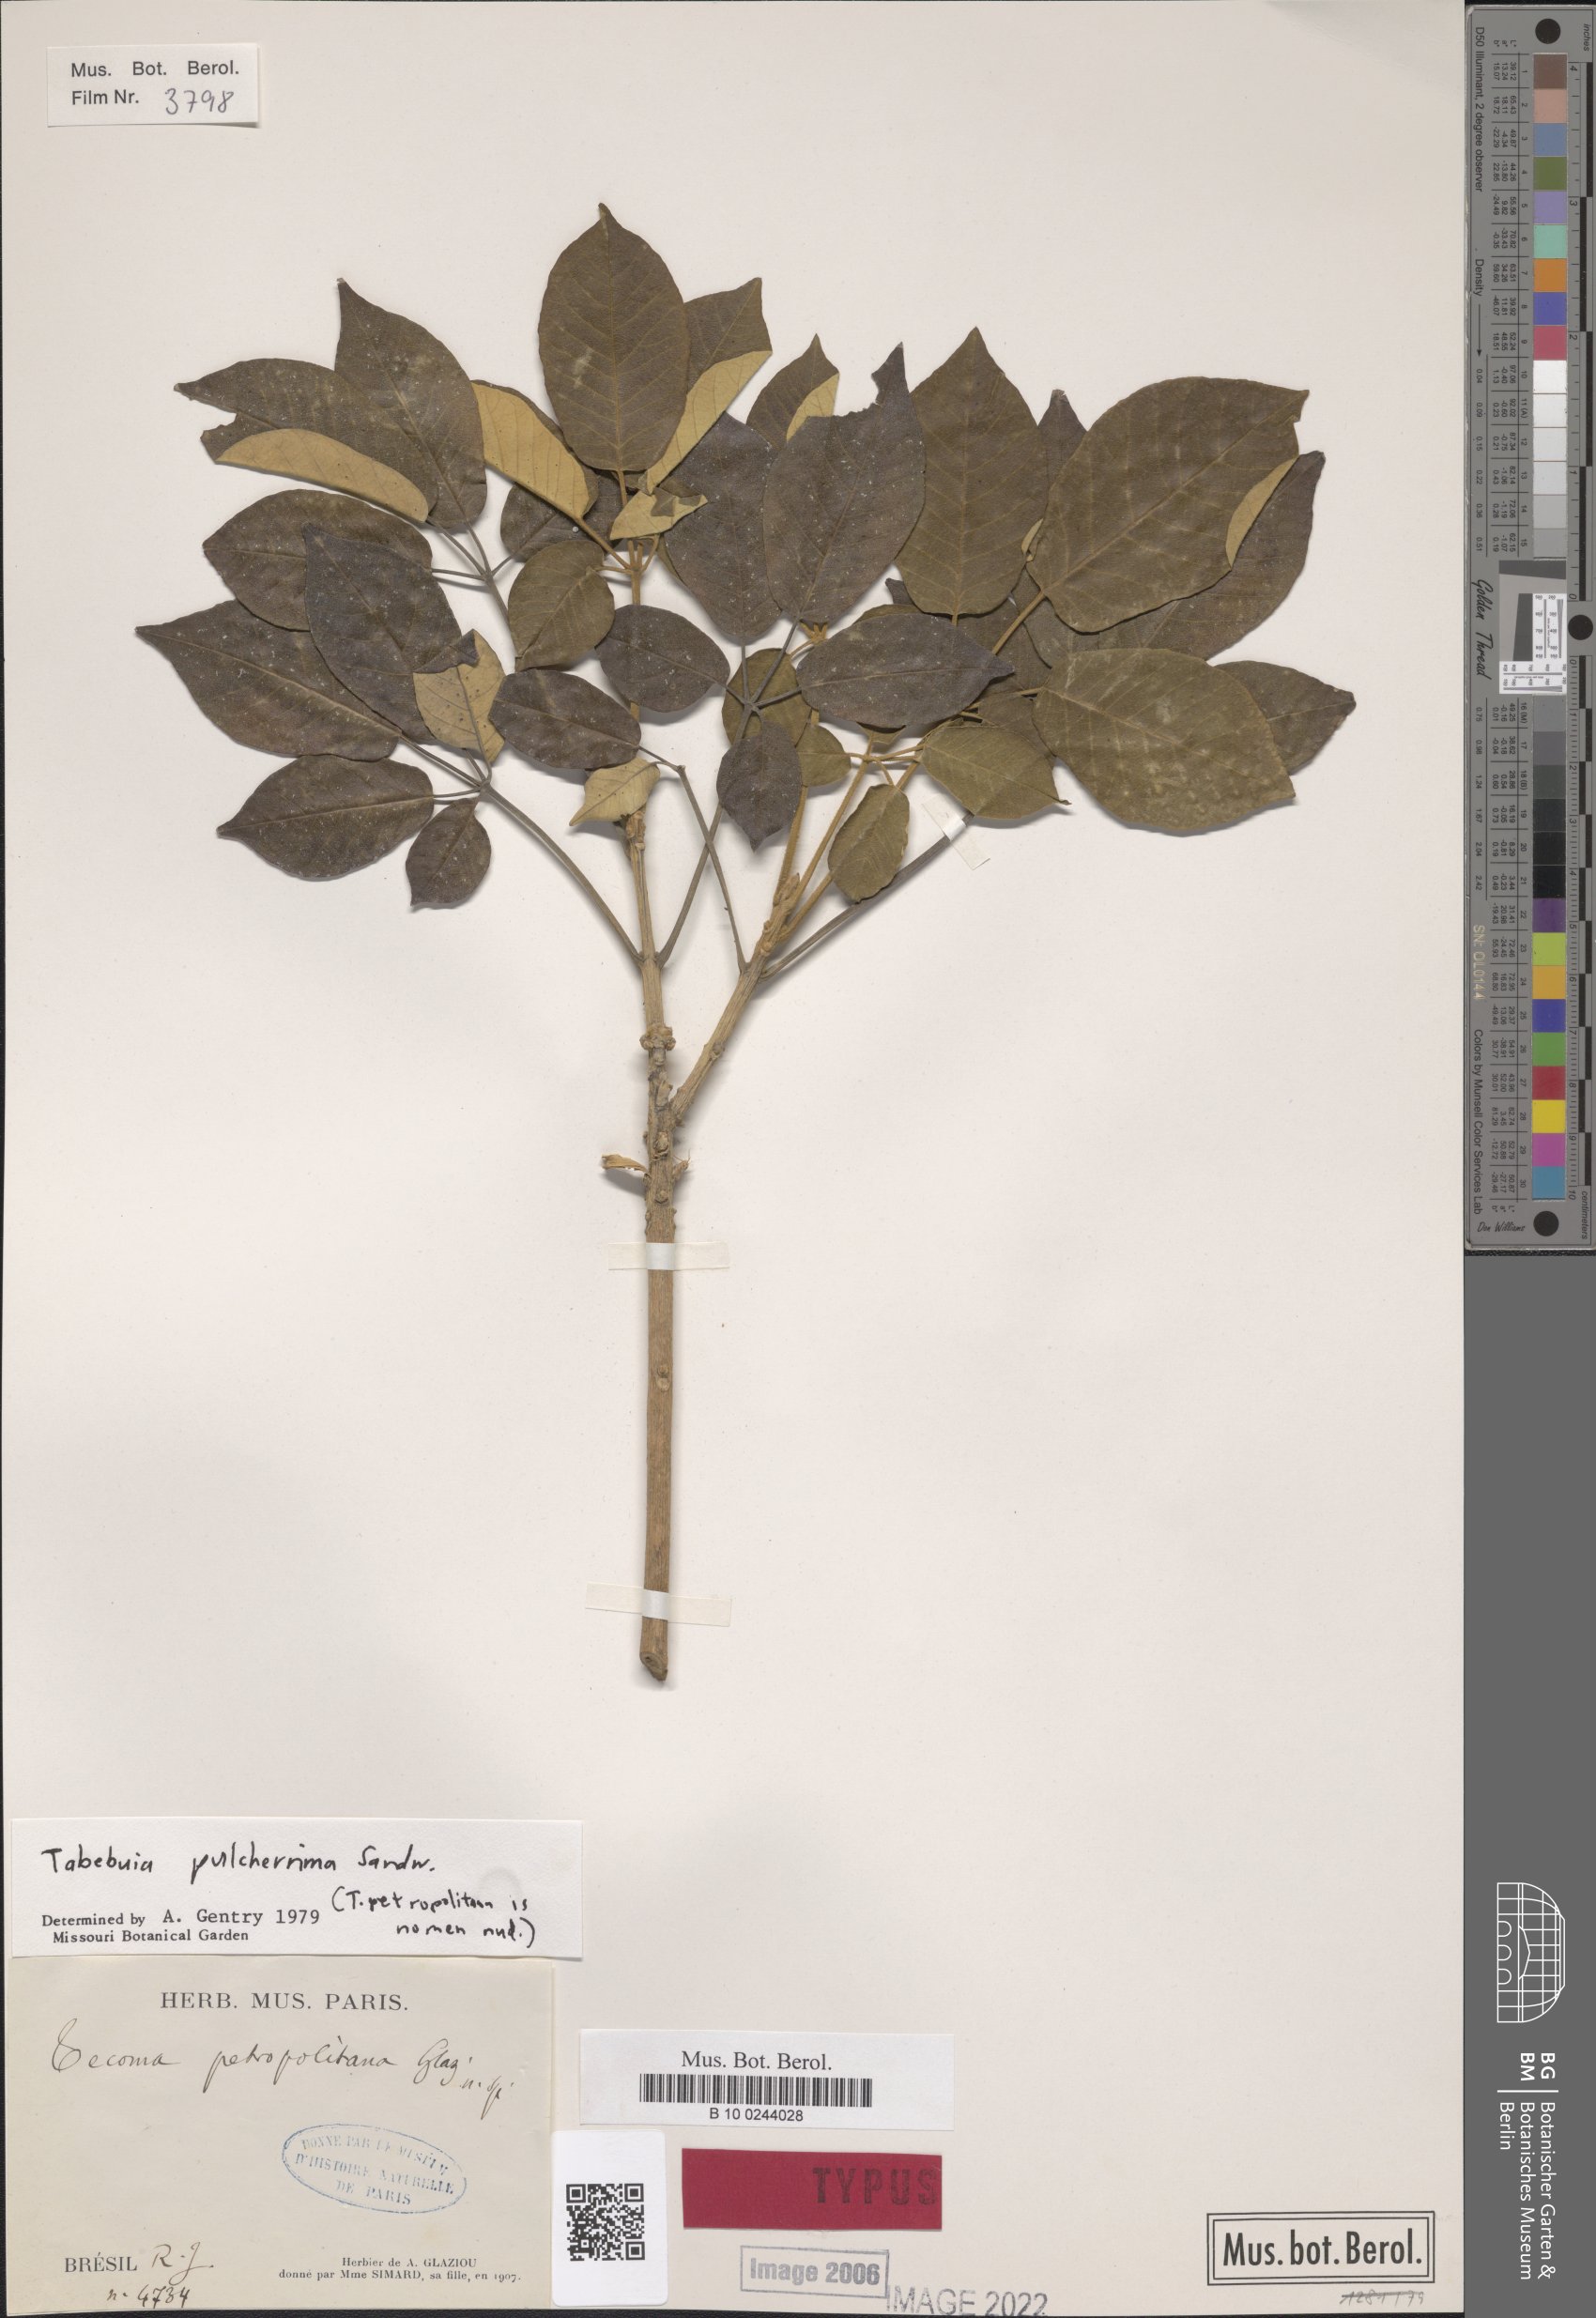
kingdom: Plantae
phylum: Tracheophyta
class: Magnoliopsida
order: Lamiales
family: Bignoniaceae
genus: Handroanthus
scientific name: Handroanthus pulcherrimus
